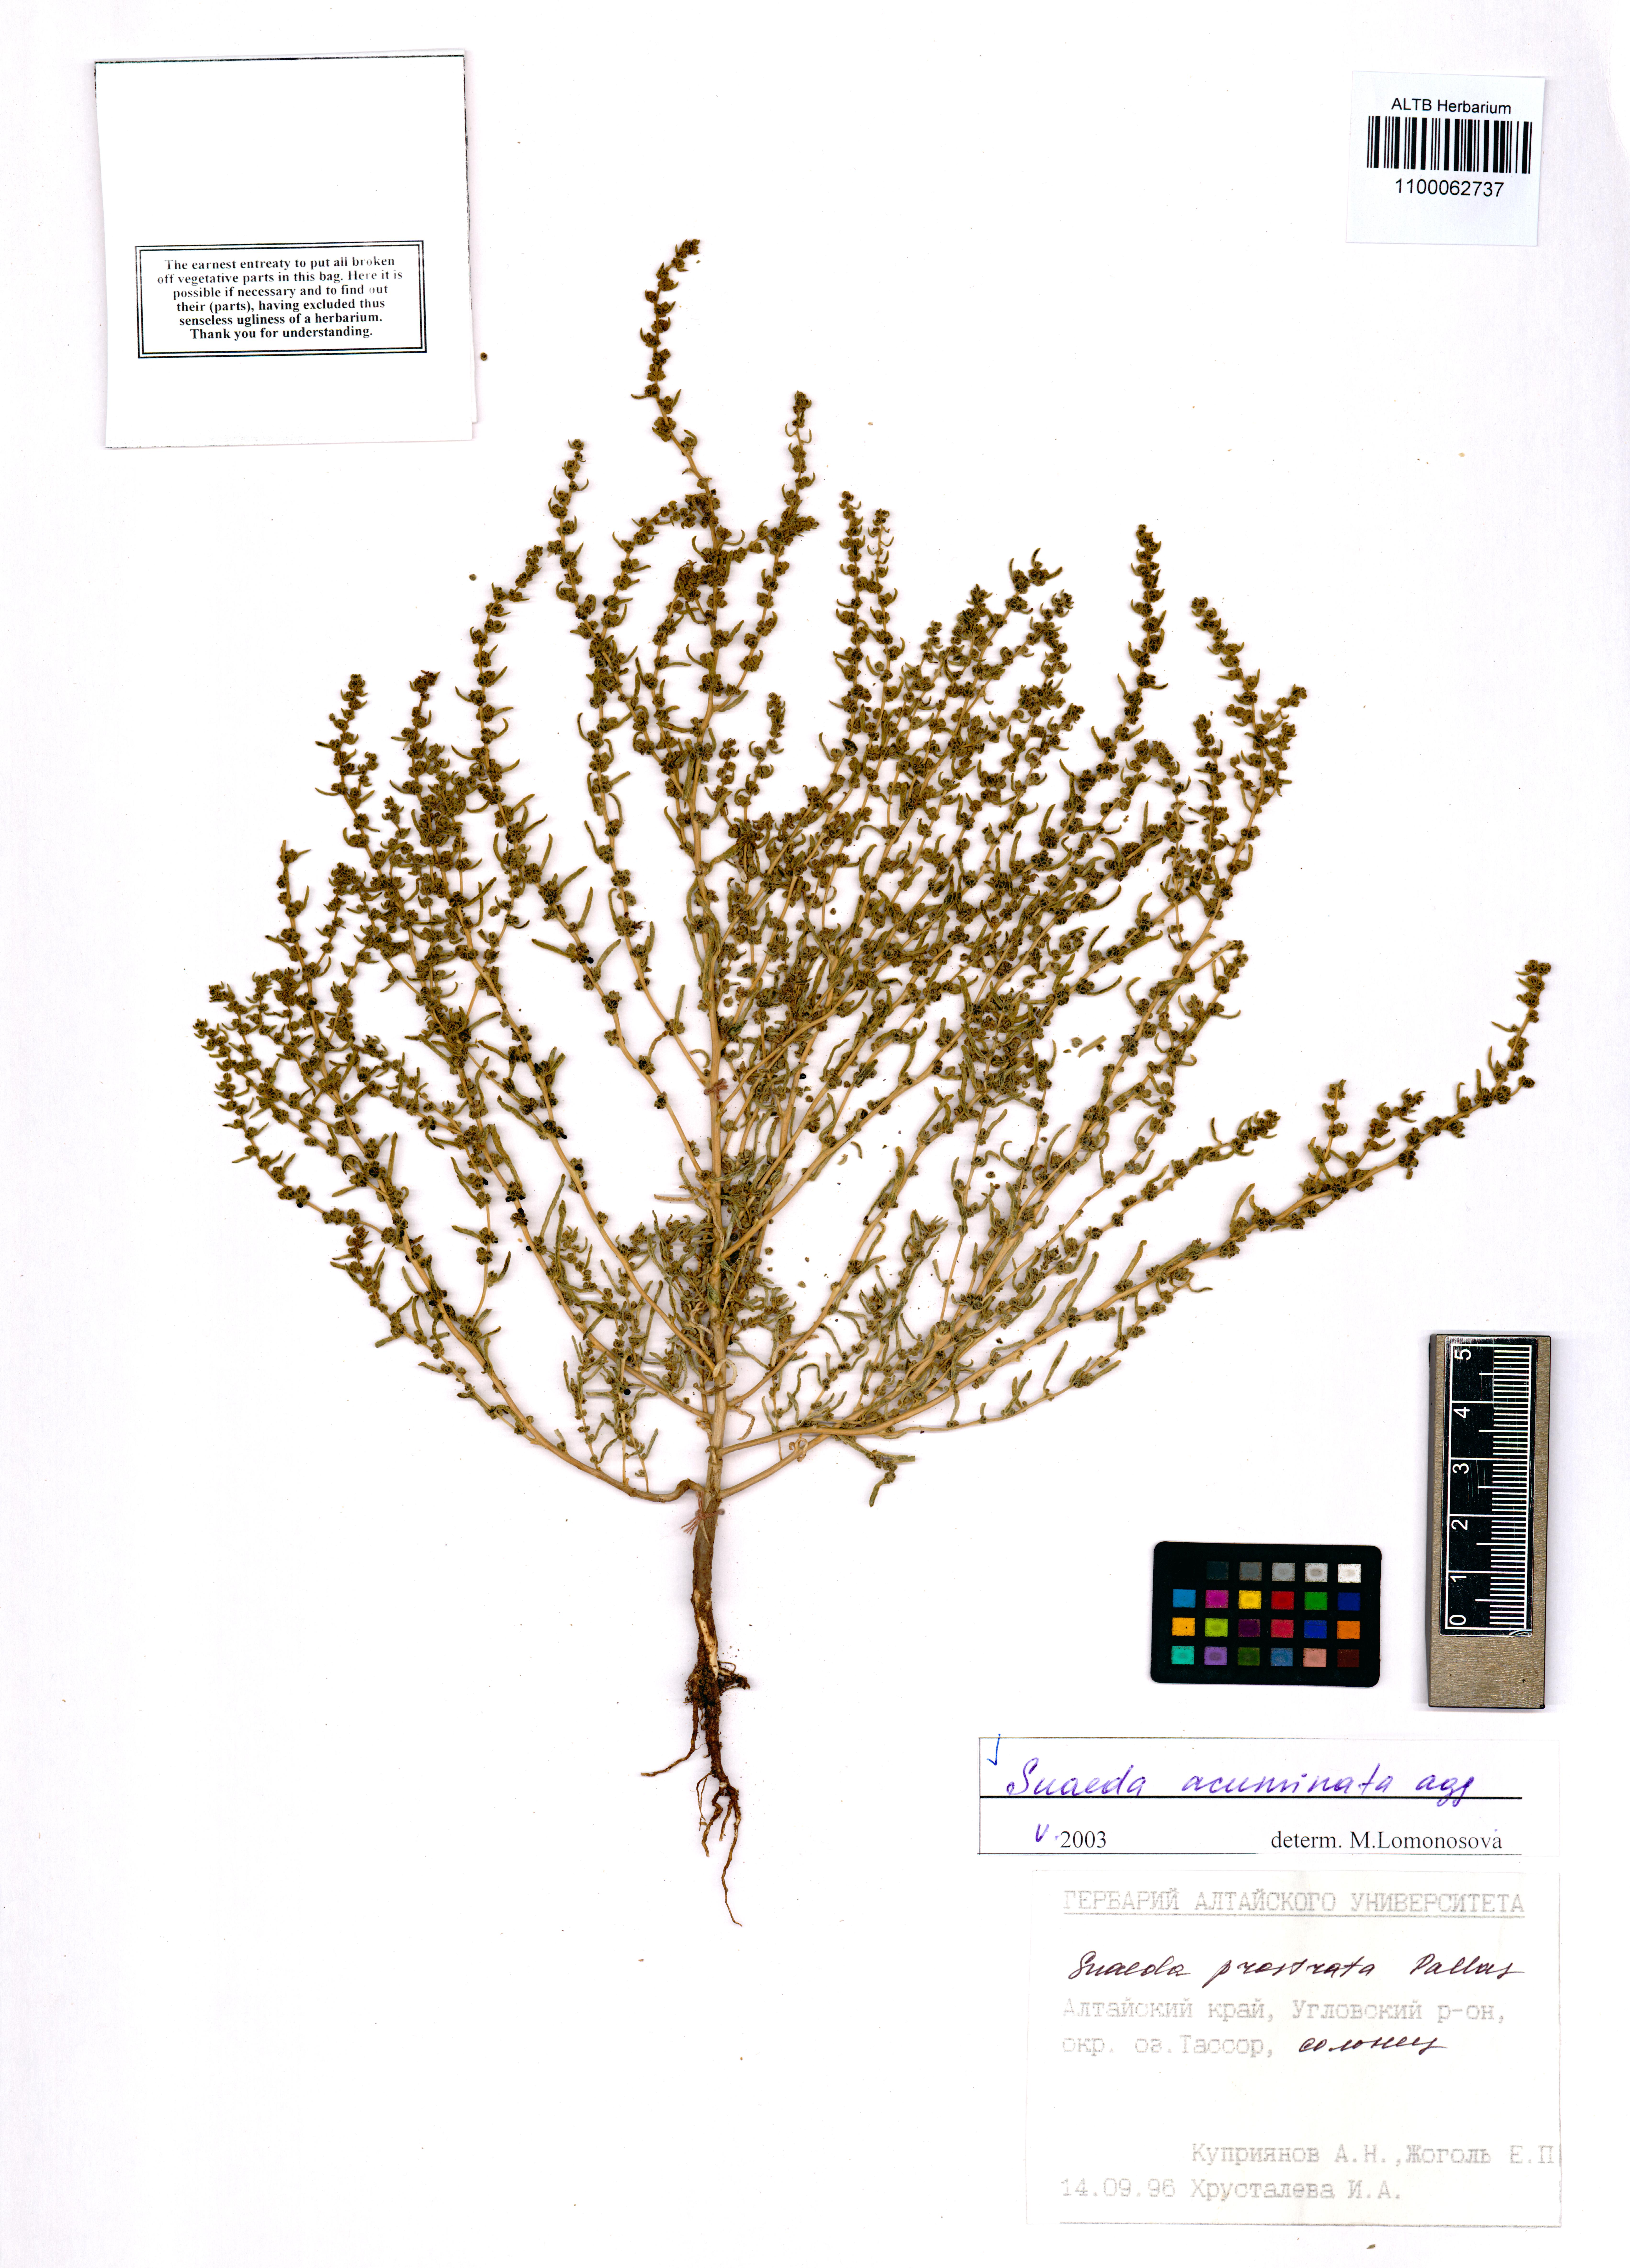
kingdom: Plantae
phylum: Tracheophyta
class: Magnoliopsida
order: Caryophyllales
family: Amaranthaceae
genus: Suaeda
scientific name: Suaeda acuminata
